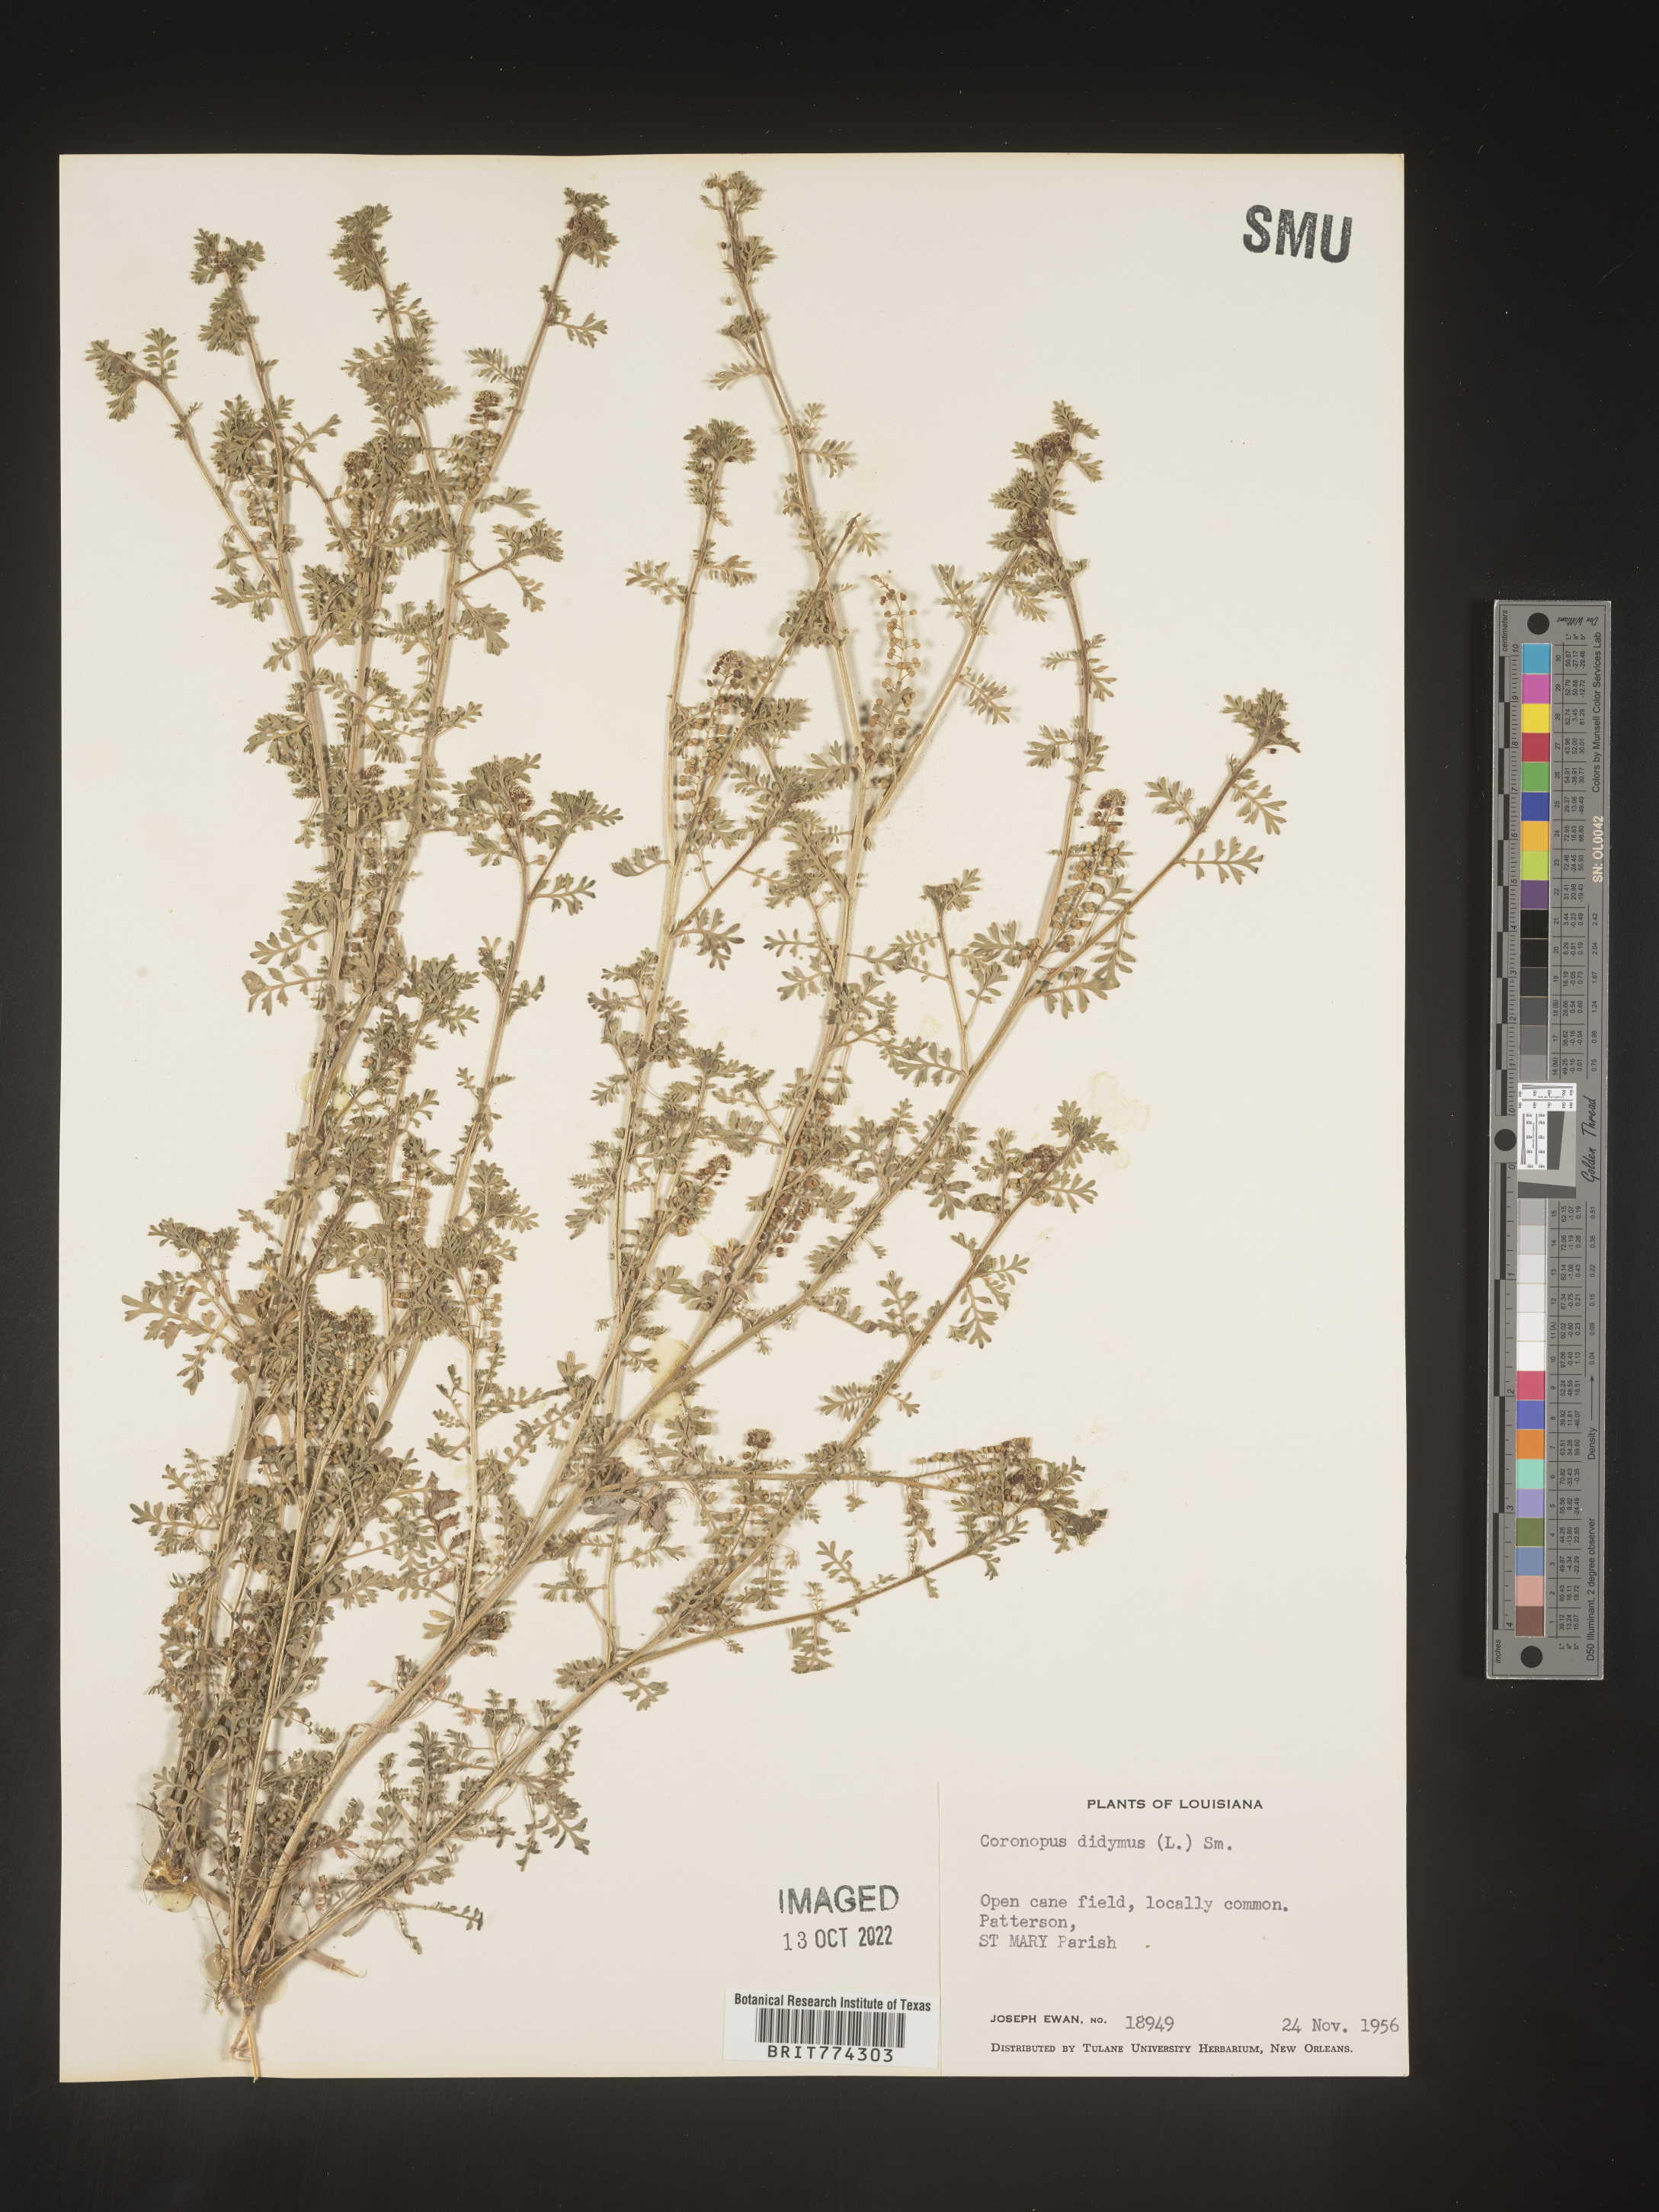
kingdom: Plantae
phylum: Tracheophyta
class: Magnoliopsida
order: Brassicales
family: Brassicaceae
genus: Coronopus
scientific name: Coronopus
